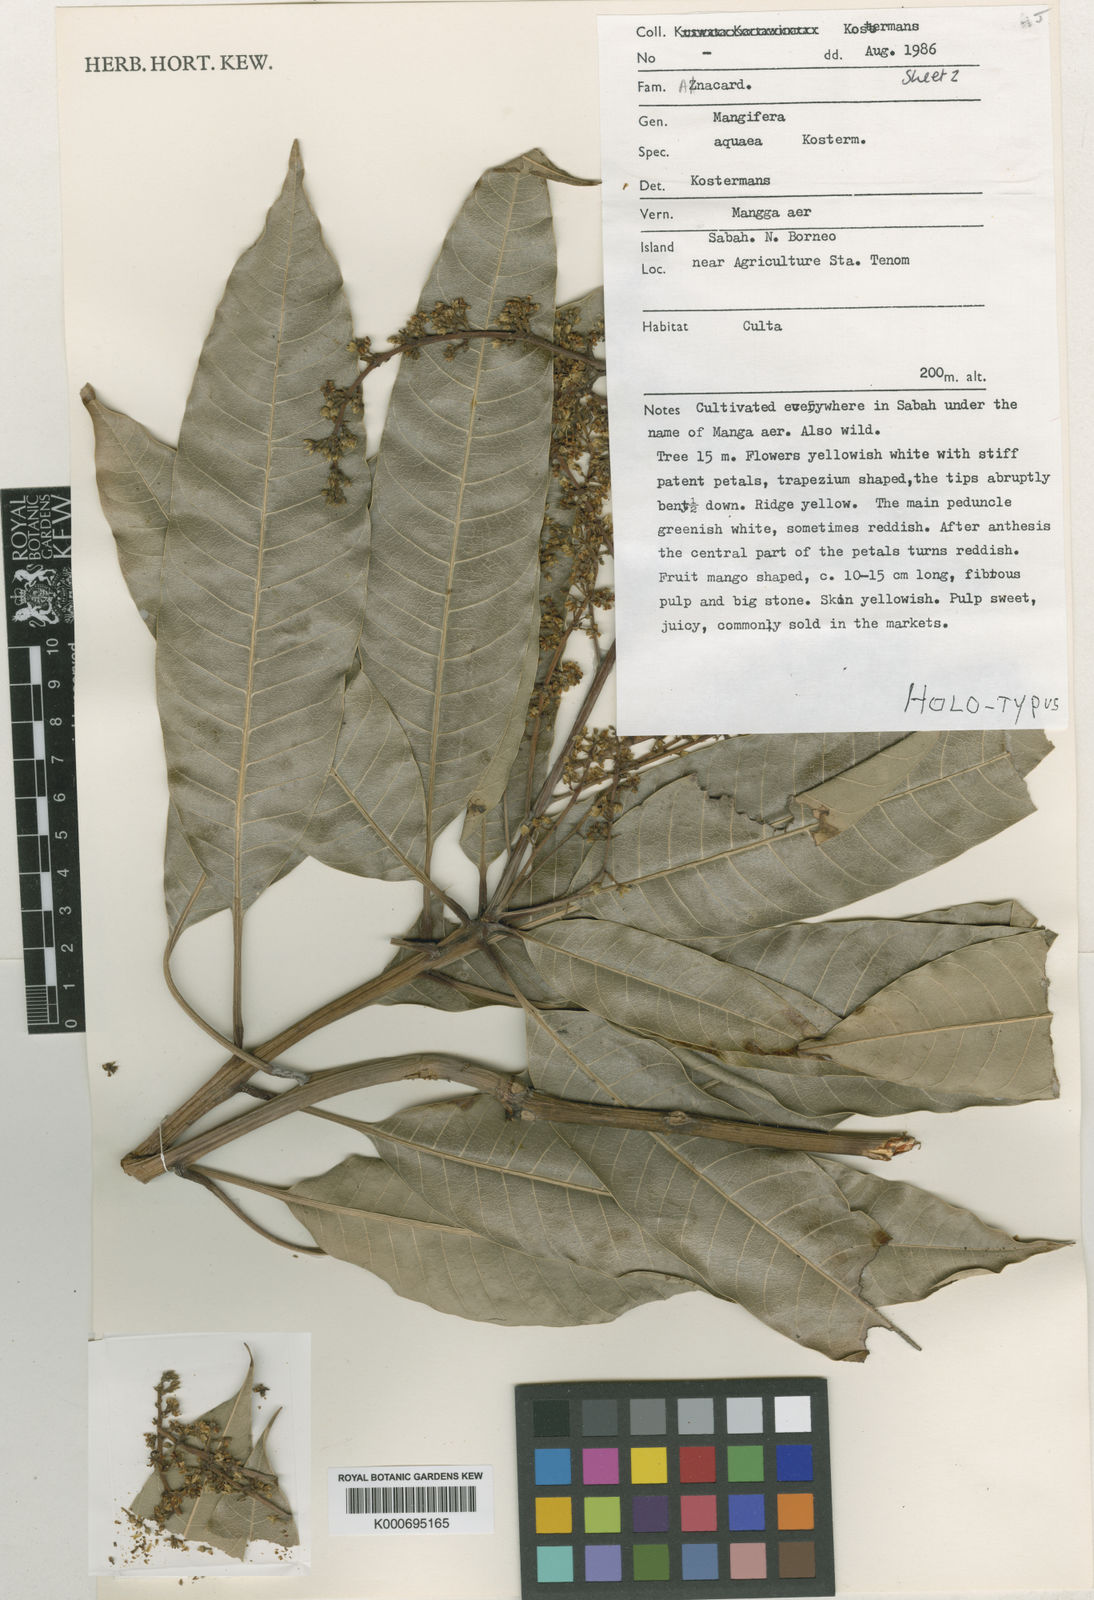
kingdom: Plantae
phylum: Tracheophyta
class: Magnoliopsida
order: Sapindales
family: Anacardiaceae
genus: Mangifera
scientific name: Mangifera
